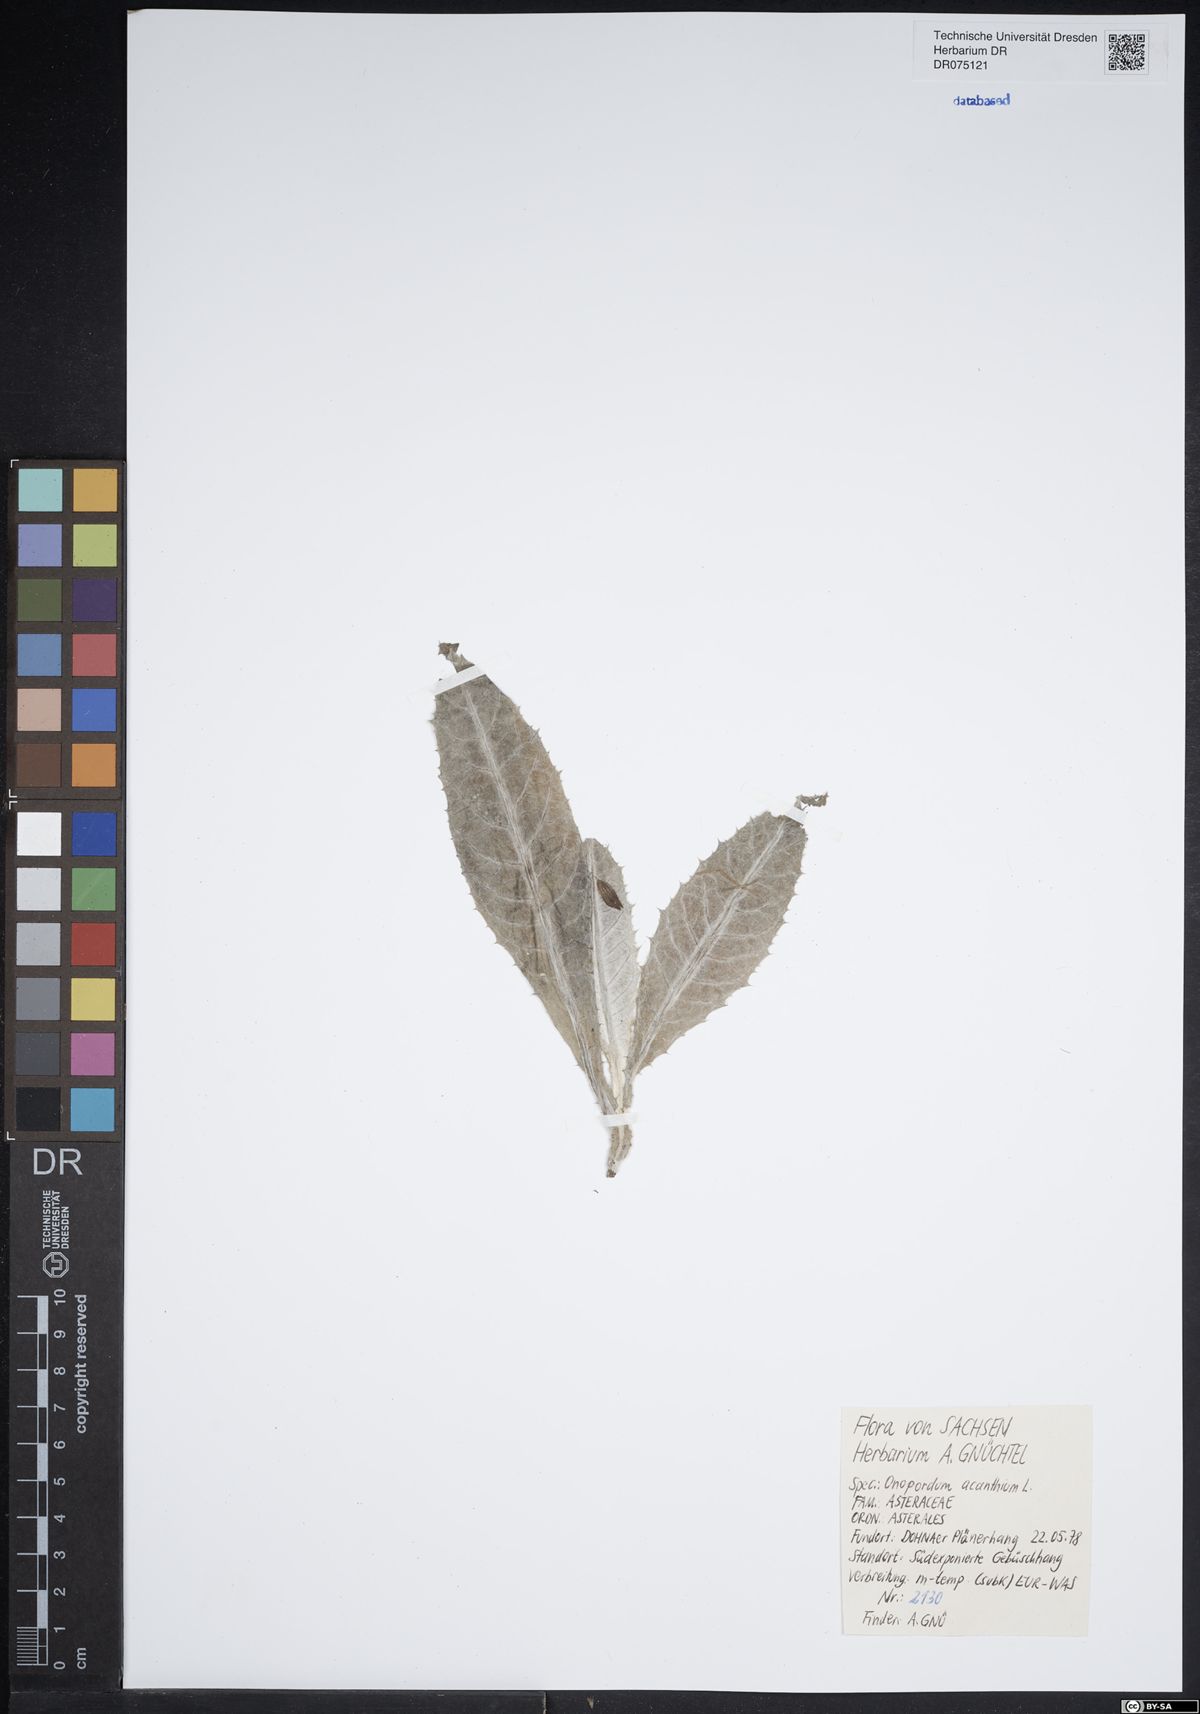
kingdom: Plantae
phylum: Tracheophyta
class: Magnoliopsida
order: Asterales
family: Asteraceae
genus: Onopordum
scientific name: Onopordum acanthium
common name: Scotch thistle
